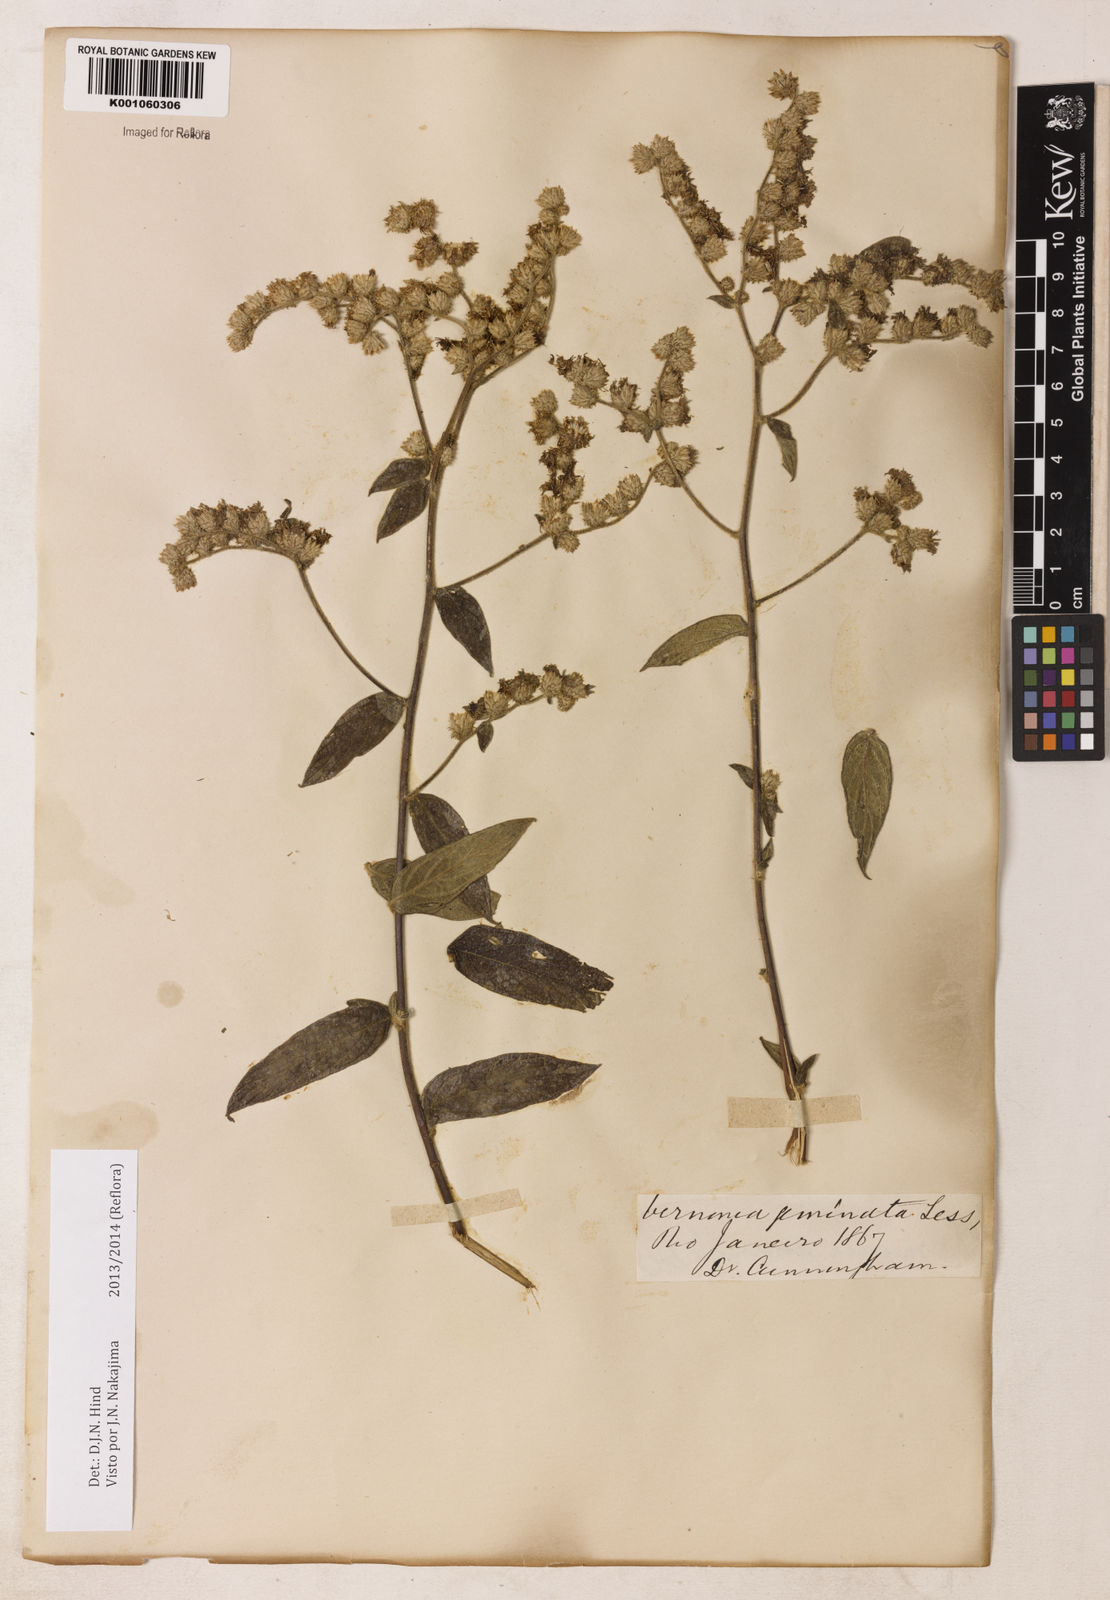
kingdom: Plantae
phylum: Tracheophyta
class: Magnoliopsida
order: Asterales
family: Asteraceae
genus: Lepidaploa
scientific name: Lepidaploa canescens
